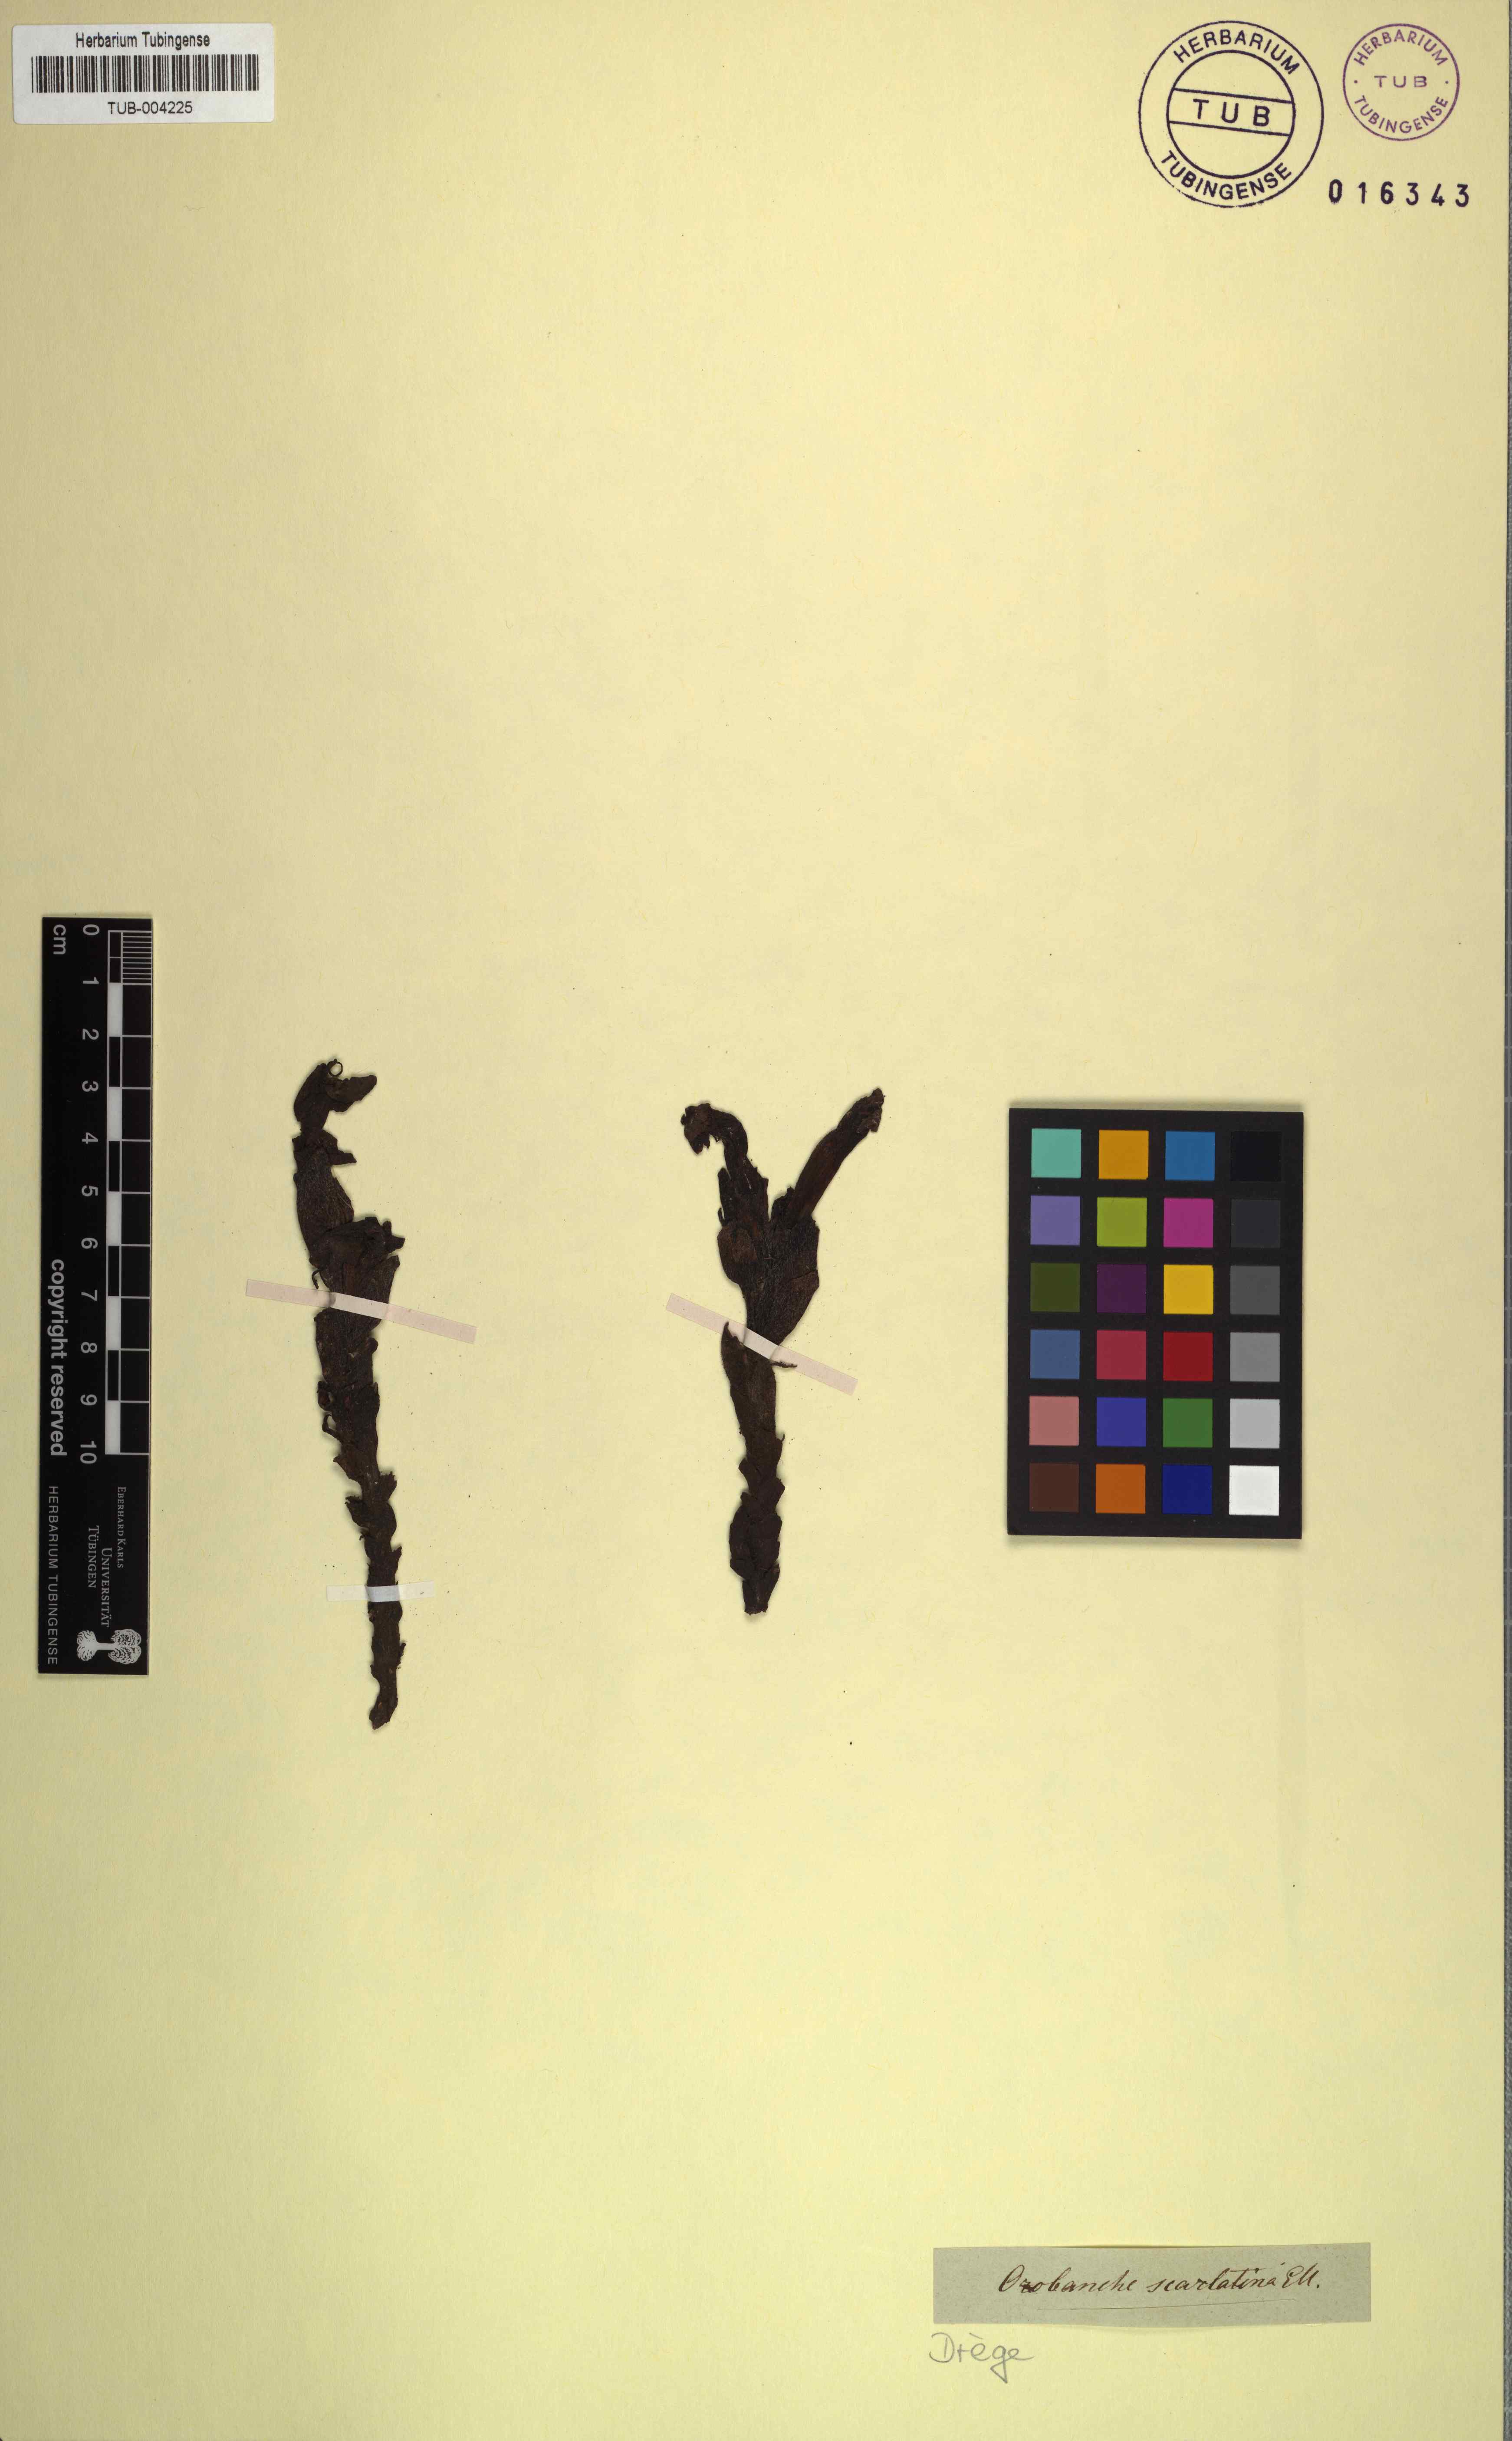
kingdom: Plantae
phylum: Tracheophyta
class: Magnoliopsida
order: Lamiales
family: Orobanchaceae
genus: Harveya
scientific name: Harveya scarlatina
